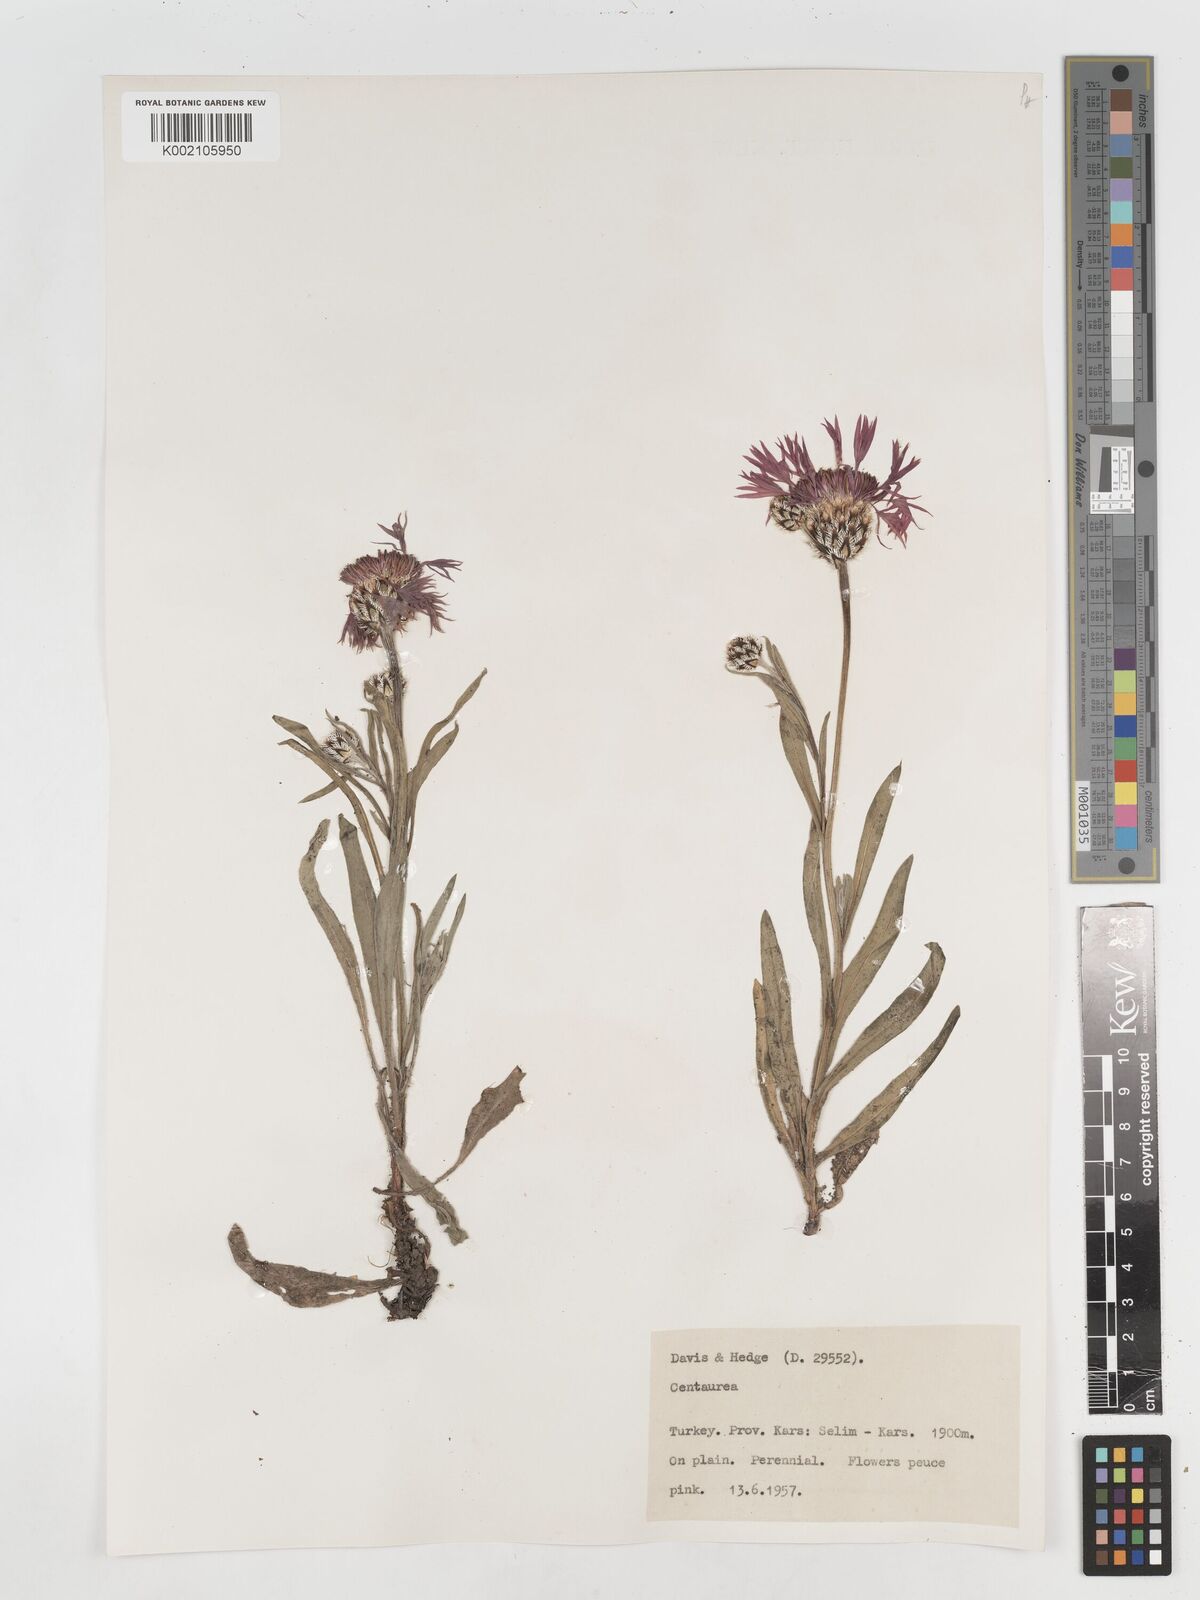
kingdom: Plantae
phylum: Tracheophyta
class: Magnoliopsida
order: Asterales
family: Asteraceae
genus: Centaurea
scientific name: Centaurea
